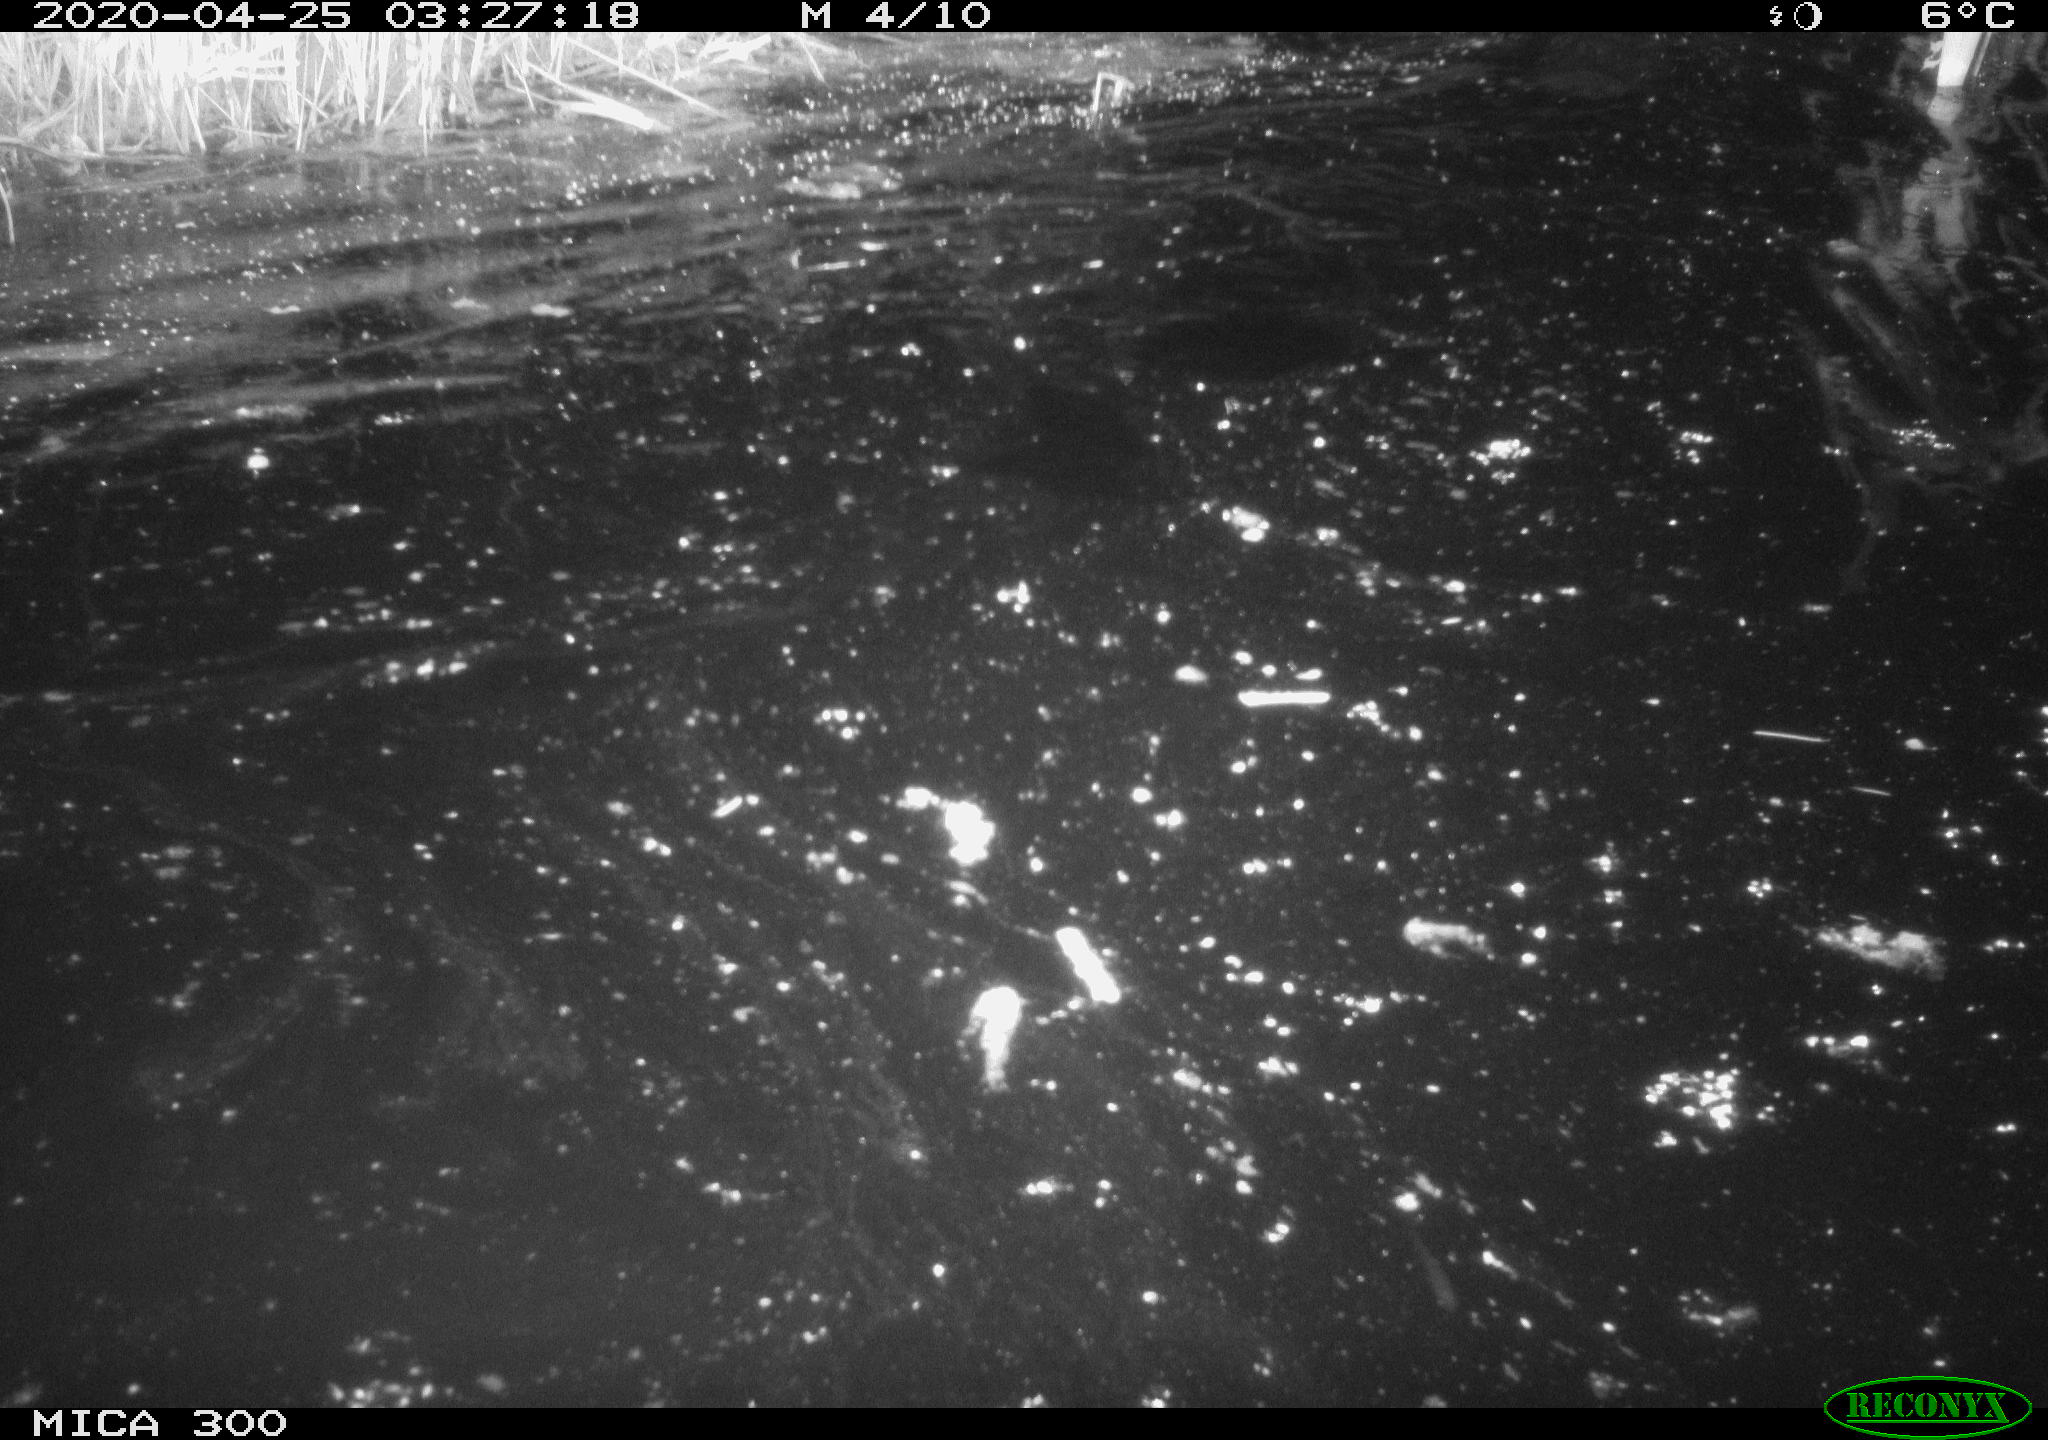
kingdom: Animalia
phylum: Chordata
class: Mammalia
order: Rodentia
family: Castoridae
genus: Castor
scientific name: Castor fiber
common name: Eurasian beaver
